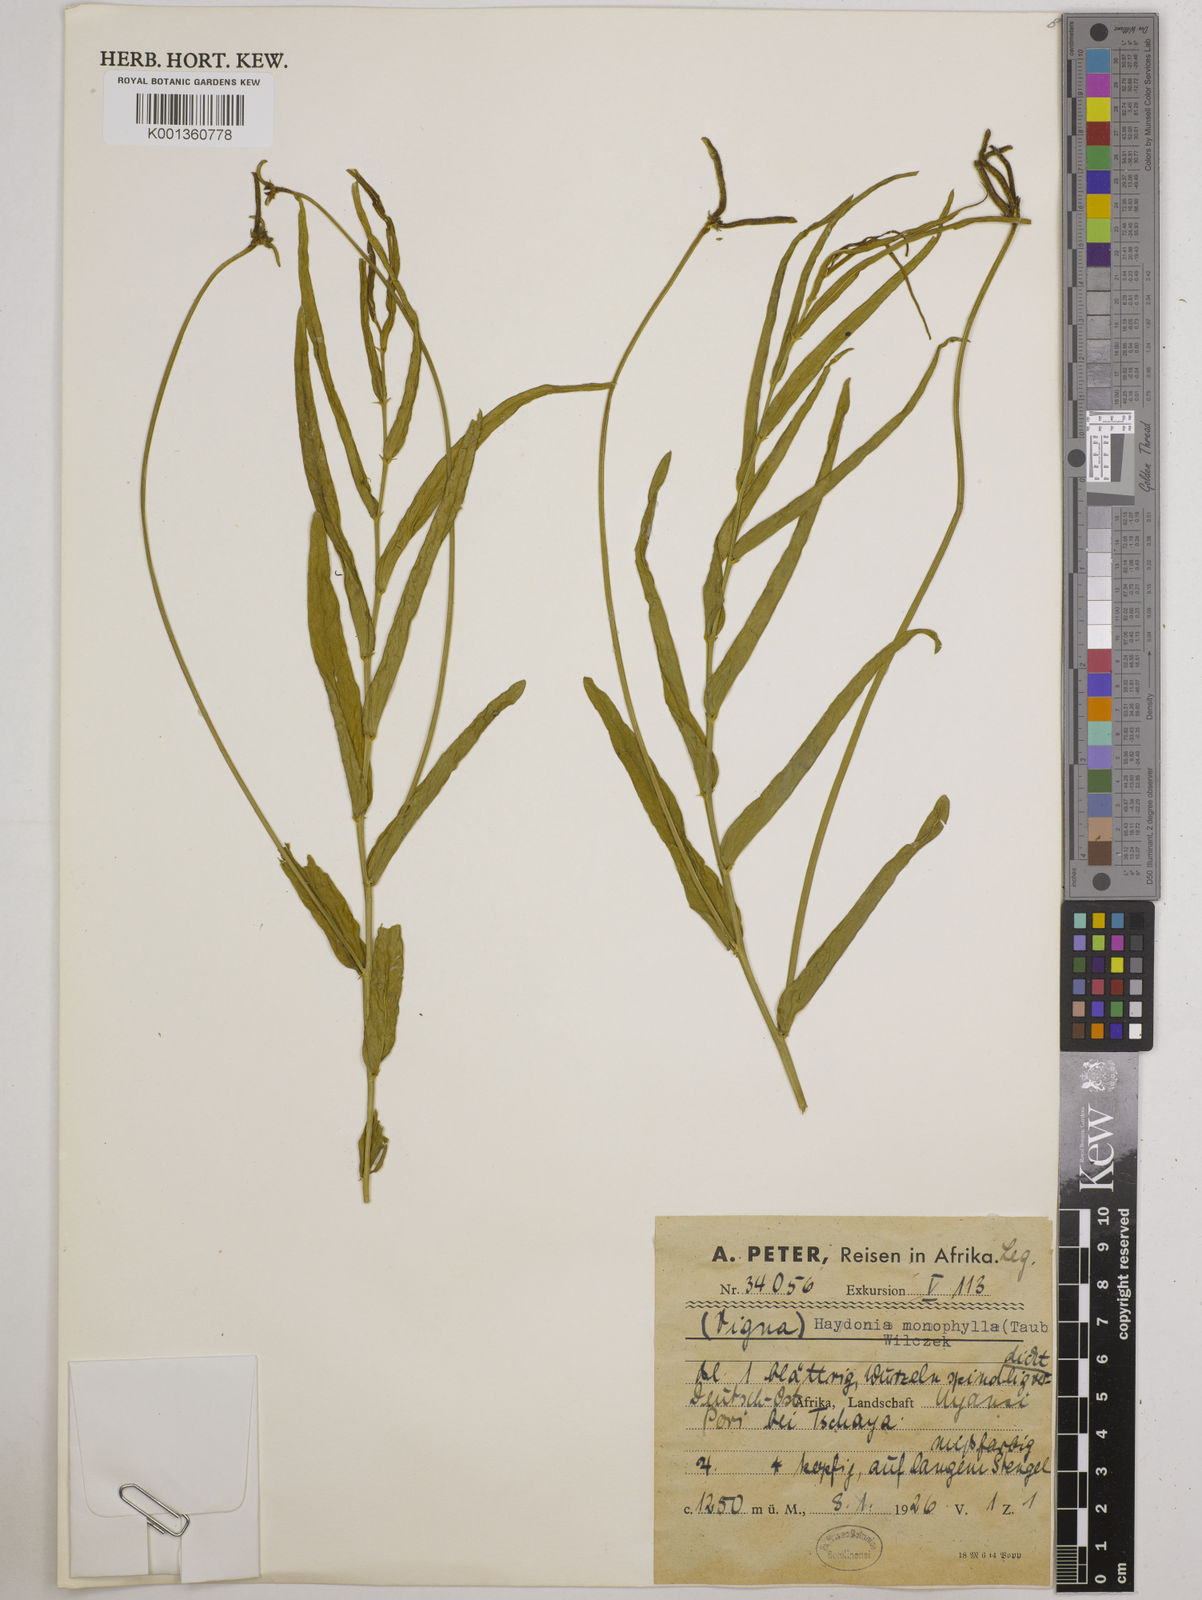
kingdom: Plantae
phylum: Tracheophyta
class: Magnoliopsida
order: Fabales
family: Fabaceae
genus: Vigna
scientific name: Vigna monophylla
